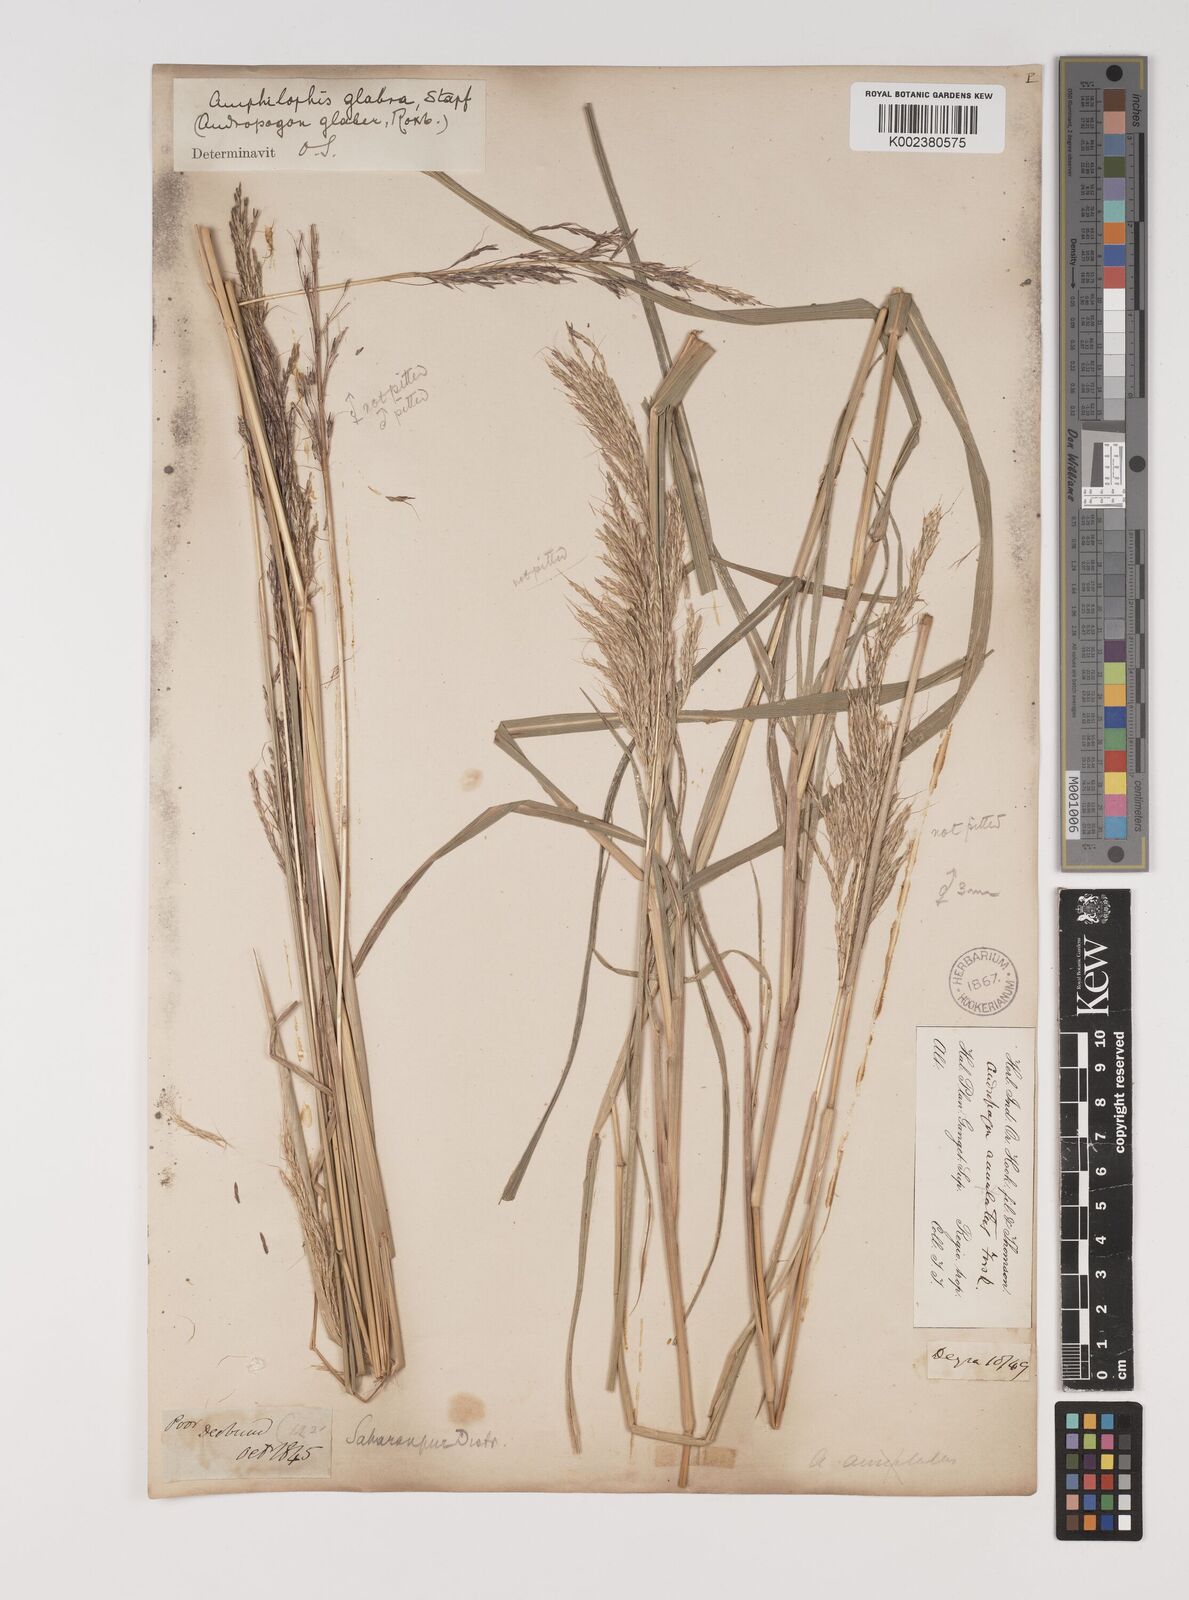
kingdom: Plantae
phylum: Tracheophyta
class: Liliopsida
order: Poales
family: Poaceae
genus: Bothriochloa
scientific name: Bothriochloa bladhii
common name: Caucasian bluestem
